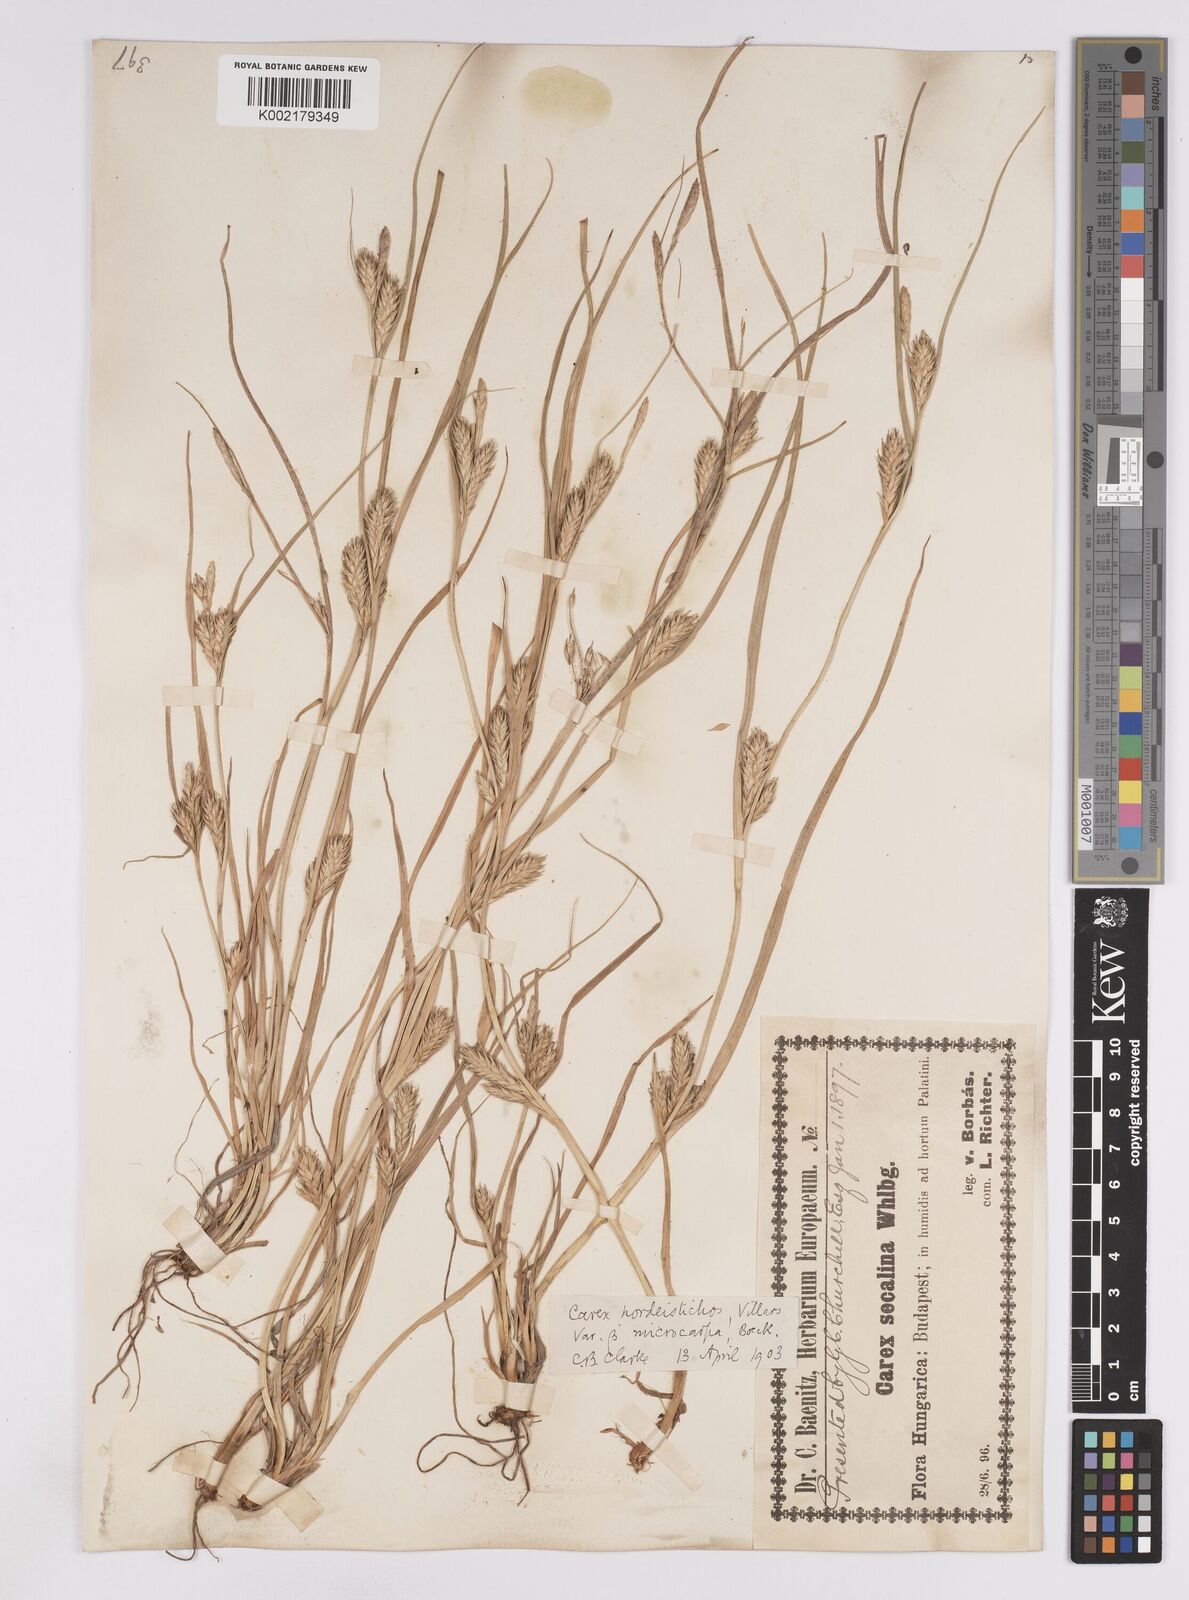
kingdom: Plantae
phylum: Tracheophyta
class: Liliopsida
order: Poales
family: Cyperaceae
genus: Carex
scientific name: Carex hordeistichos
